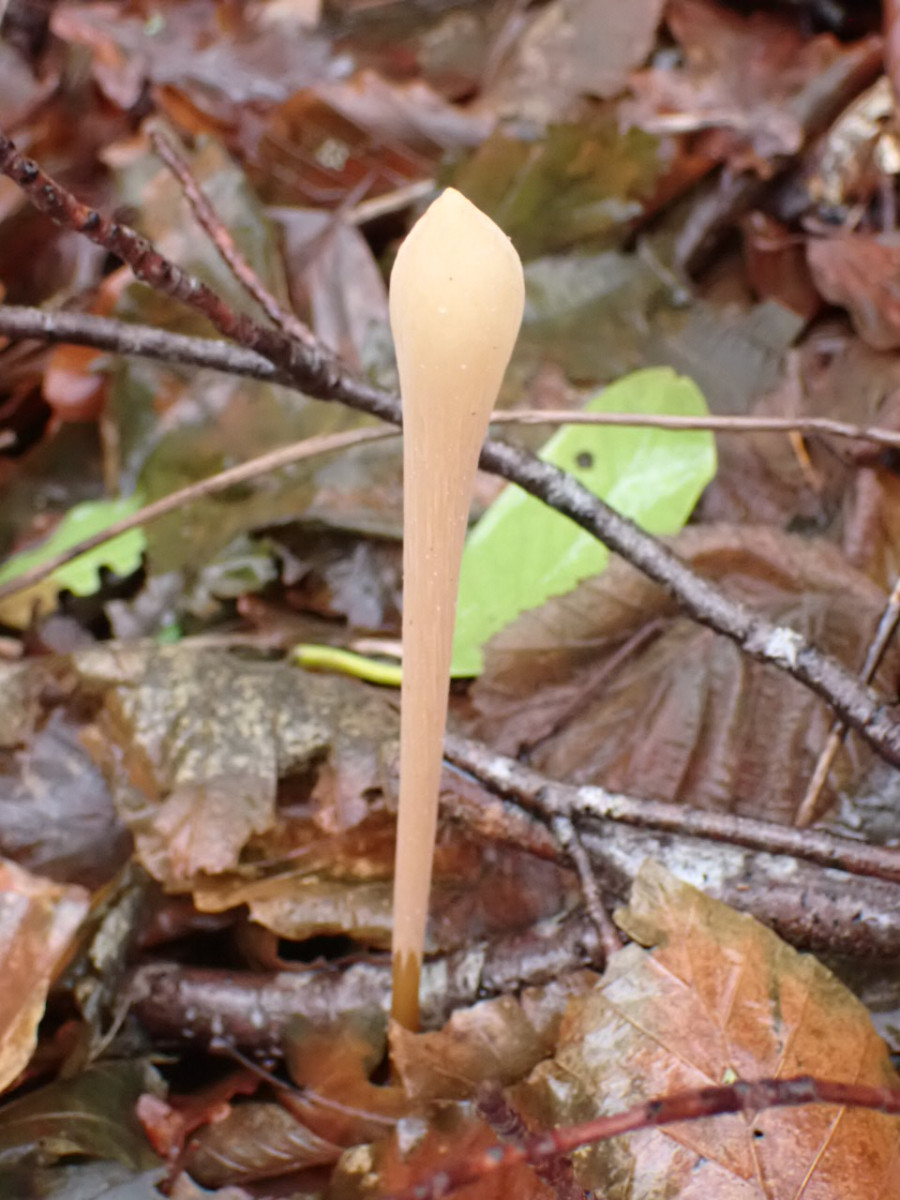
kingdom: Fungi
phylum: Basidiomycota
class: Agaricomycetes
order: Agaricales
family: Typhulaceae
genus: Typhula
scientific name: Typhula fistulosa
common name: pibet rørkølle
